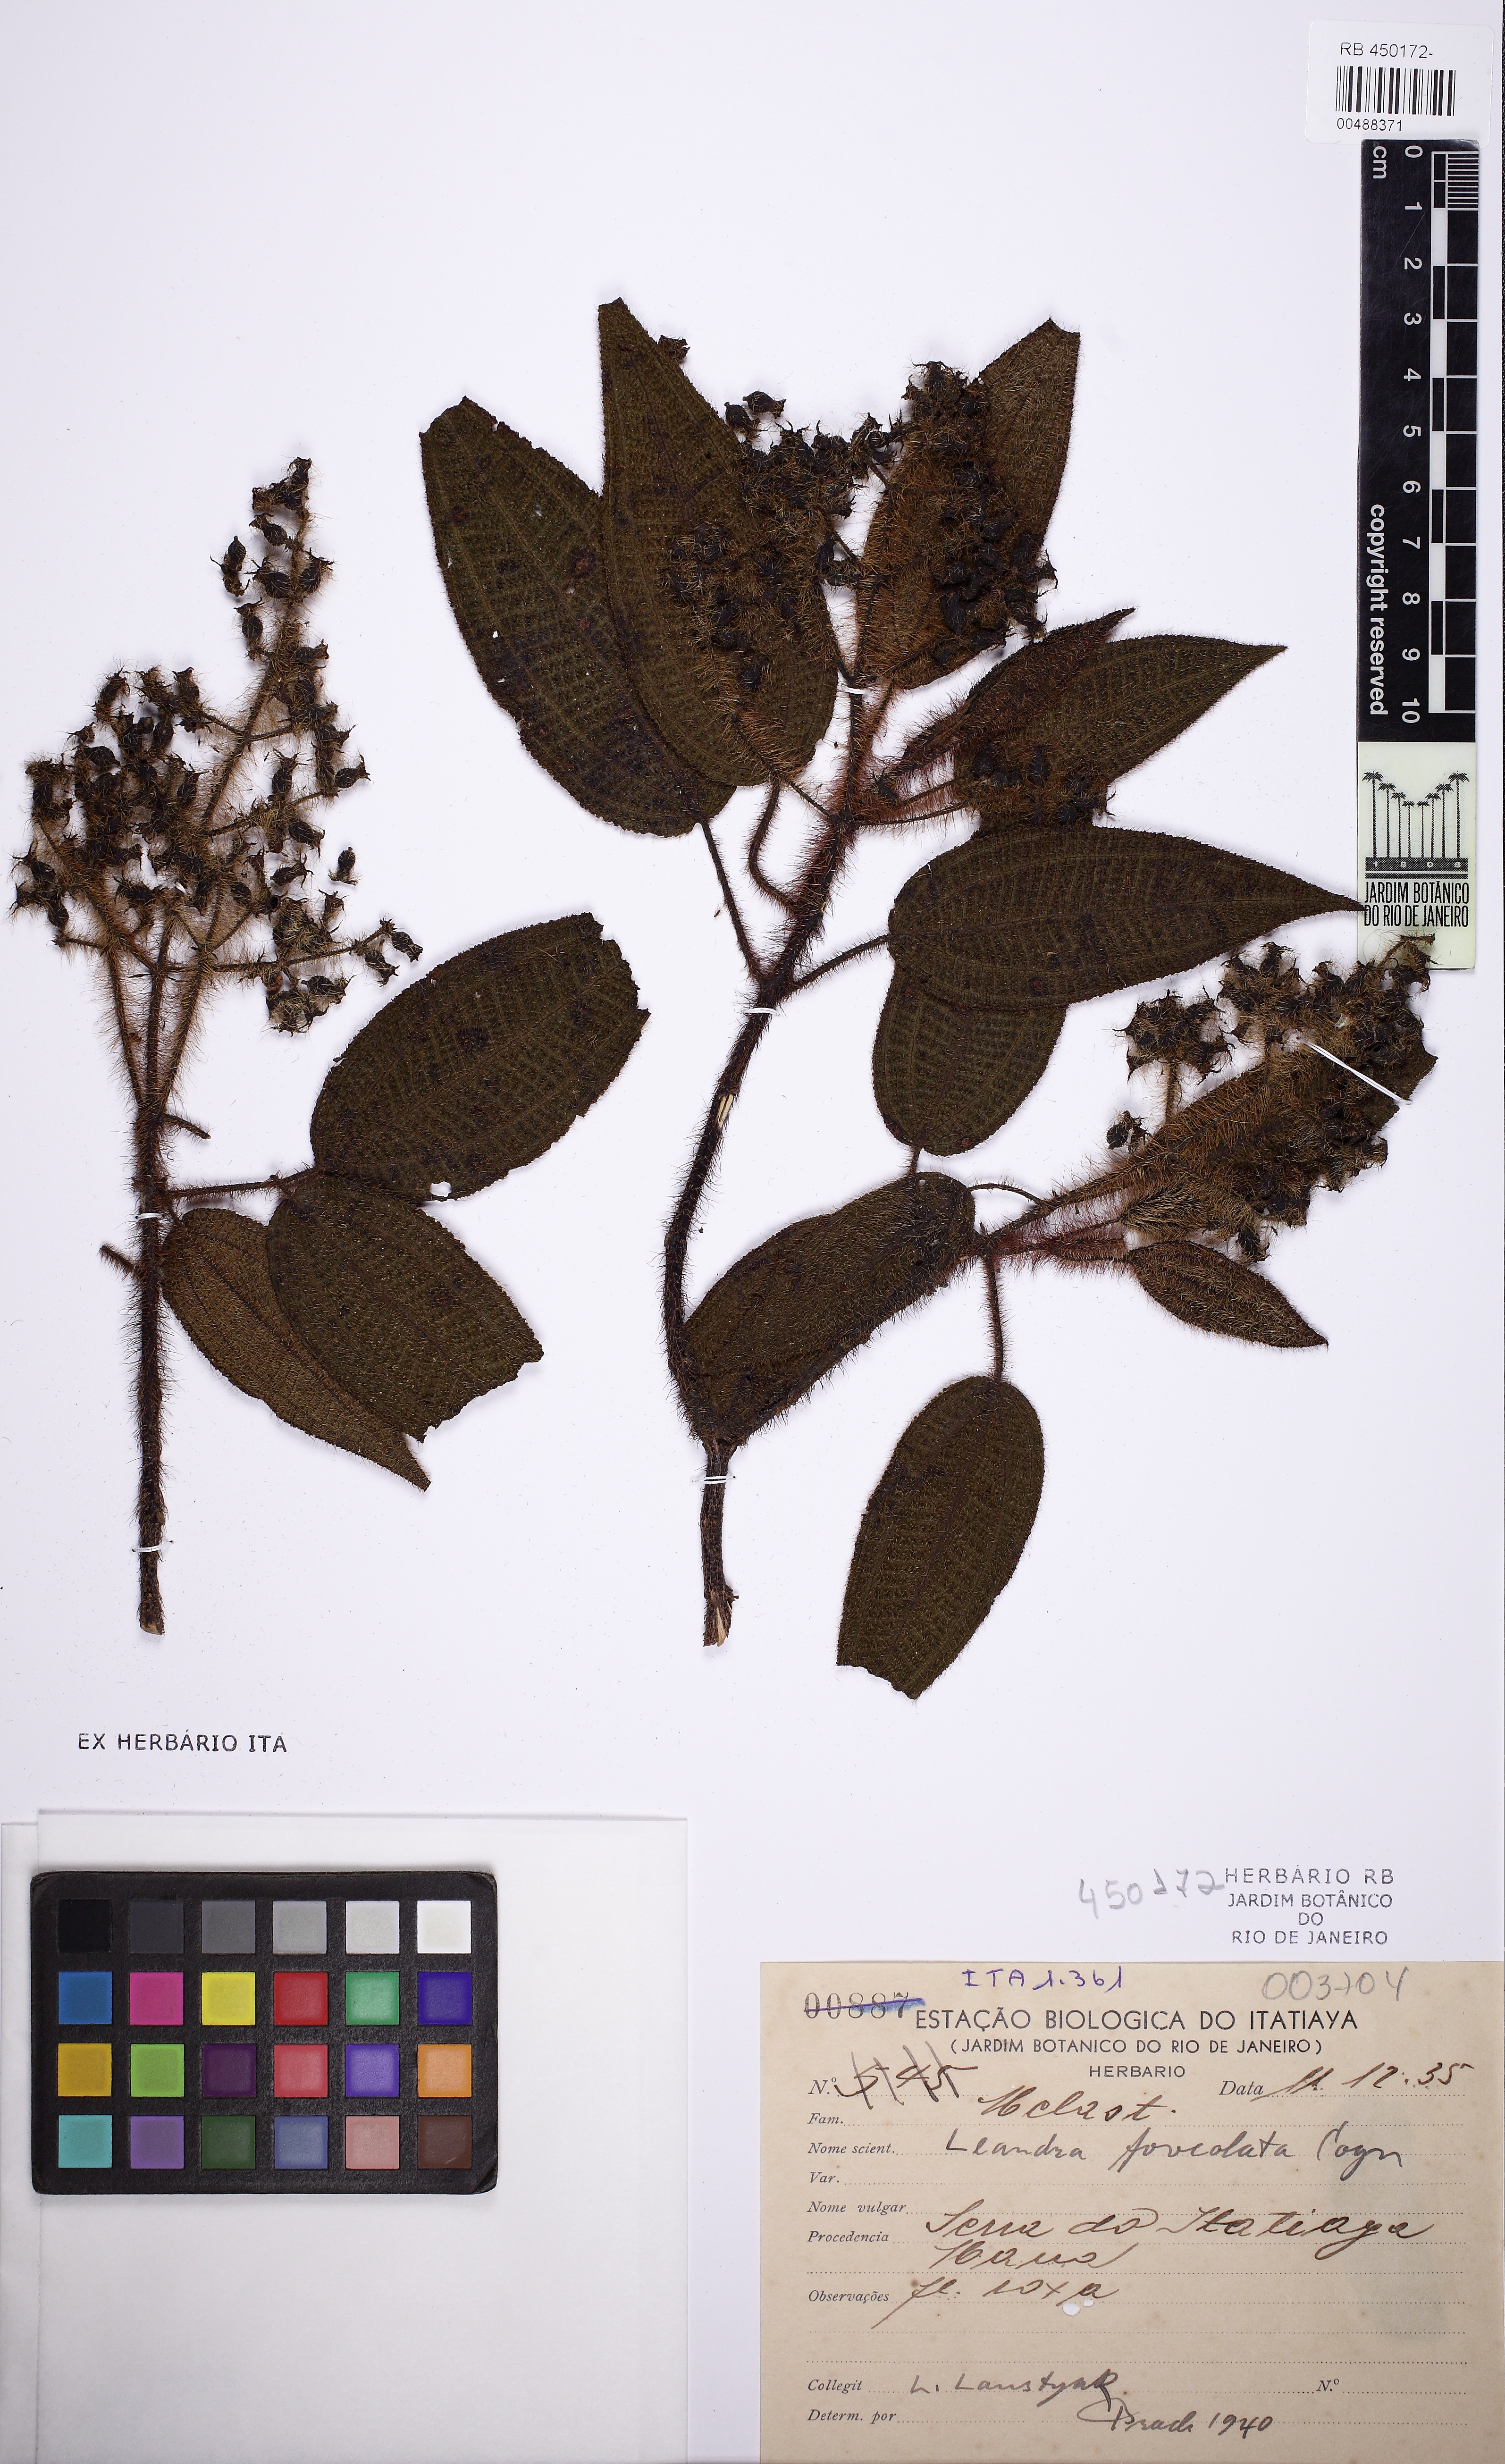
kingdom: Plantae
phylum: Tracheophyta
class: Magnoliopsida
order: Myrtales
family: Melastomataceae
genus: Miconia
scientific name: Miconia
